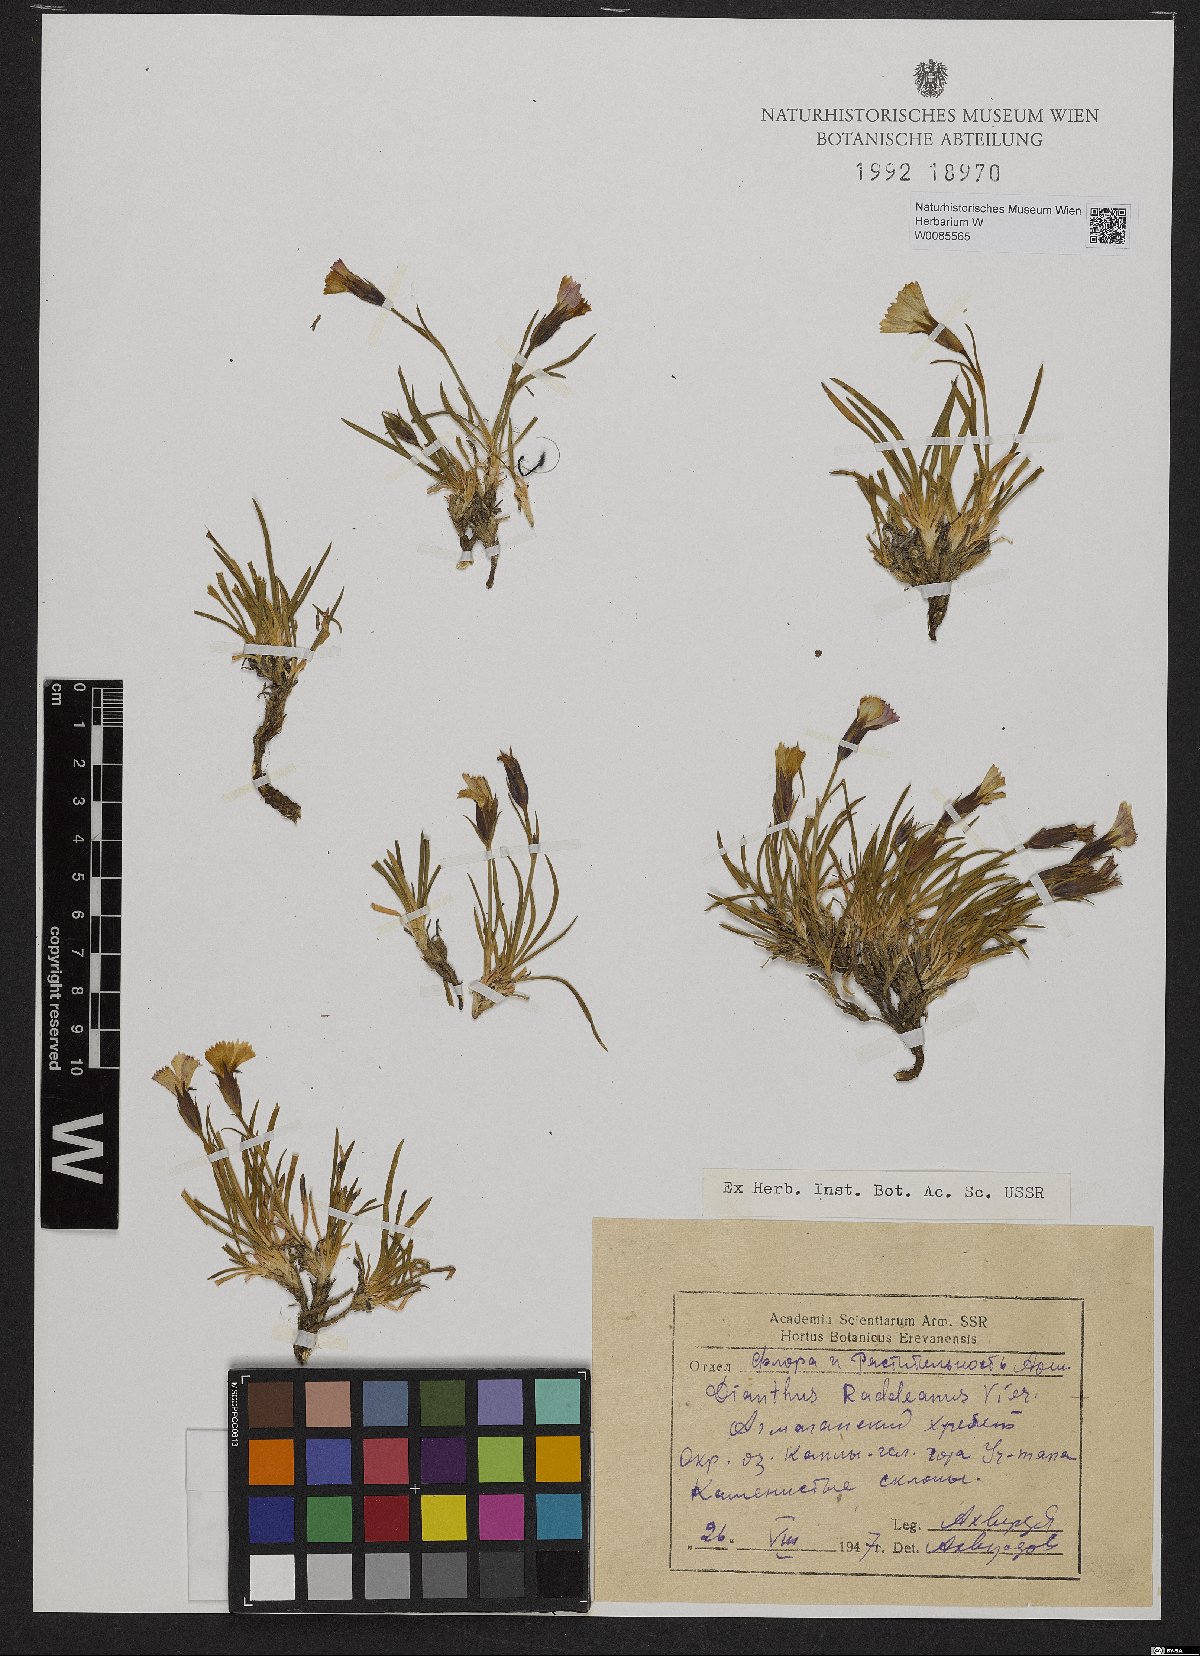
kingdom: Plantae
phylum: Tracheophyta
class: Magnoliopsida
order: Caryophyllales
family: Caryophyllaceae
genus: Dianthus
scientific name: Dianthus raddeanus
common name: Radde's pink
